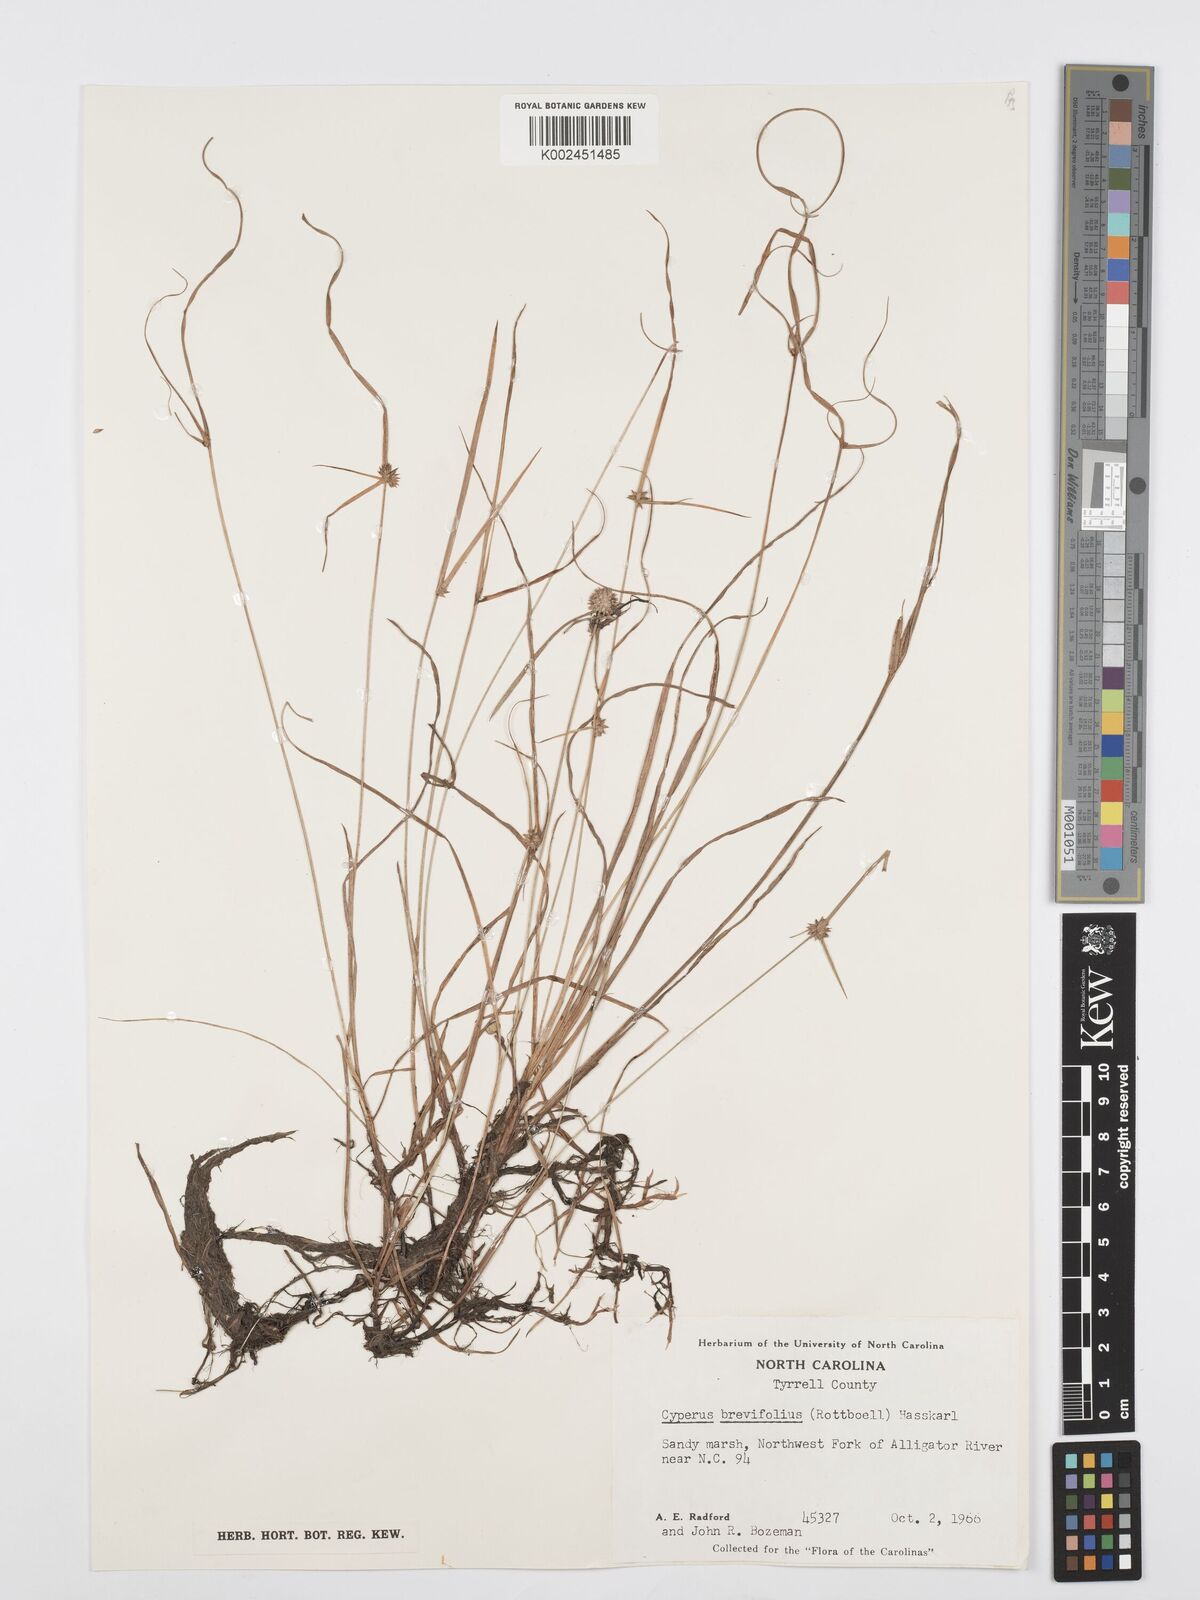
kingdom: Plantae
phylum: Tracheophyta
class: Liliopsida
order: Poales
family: Cyperaceae
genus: Cyperus
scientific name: Cyperus brevifolius
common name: Globe kyllinga
